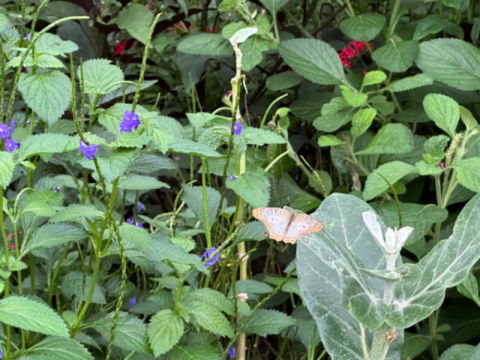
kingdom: Animalia
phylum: Arthropoda
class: Insecta
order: Lepidoptera
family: Riodinidae
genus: Synargis
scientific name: Synargis mycone
